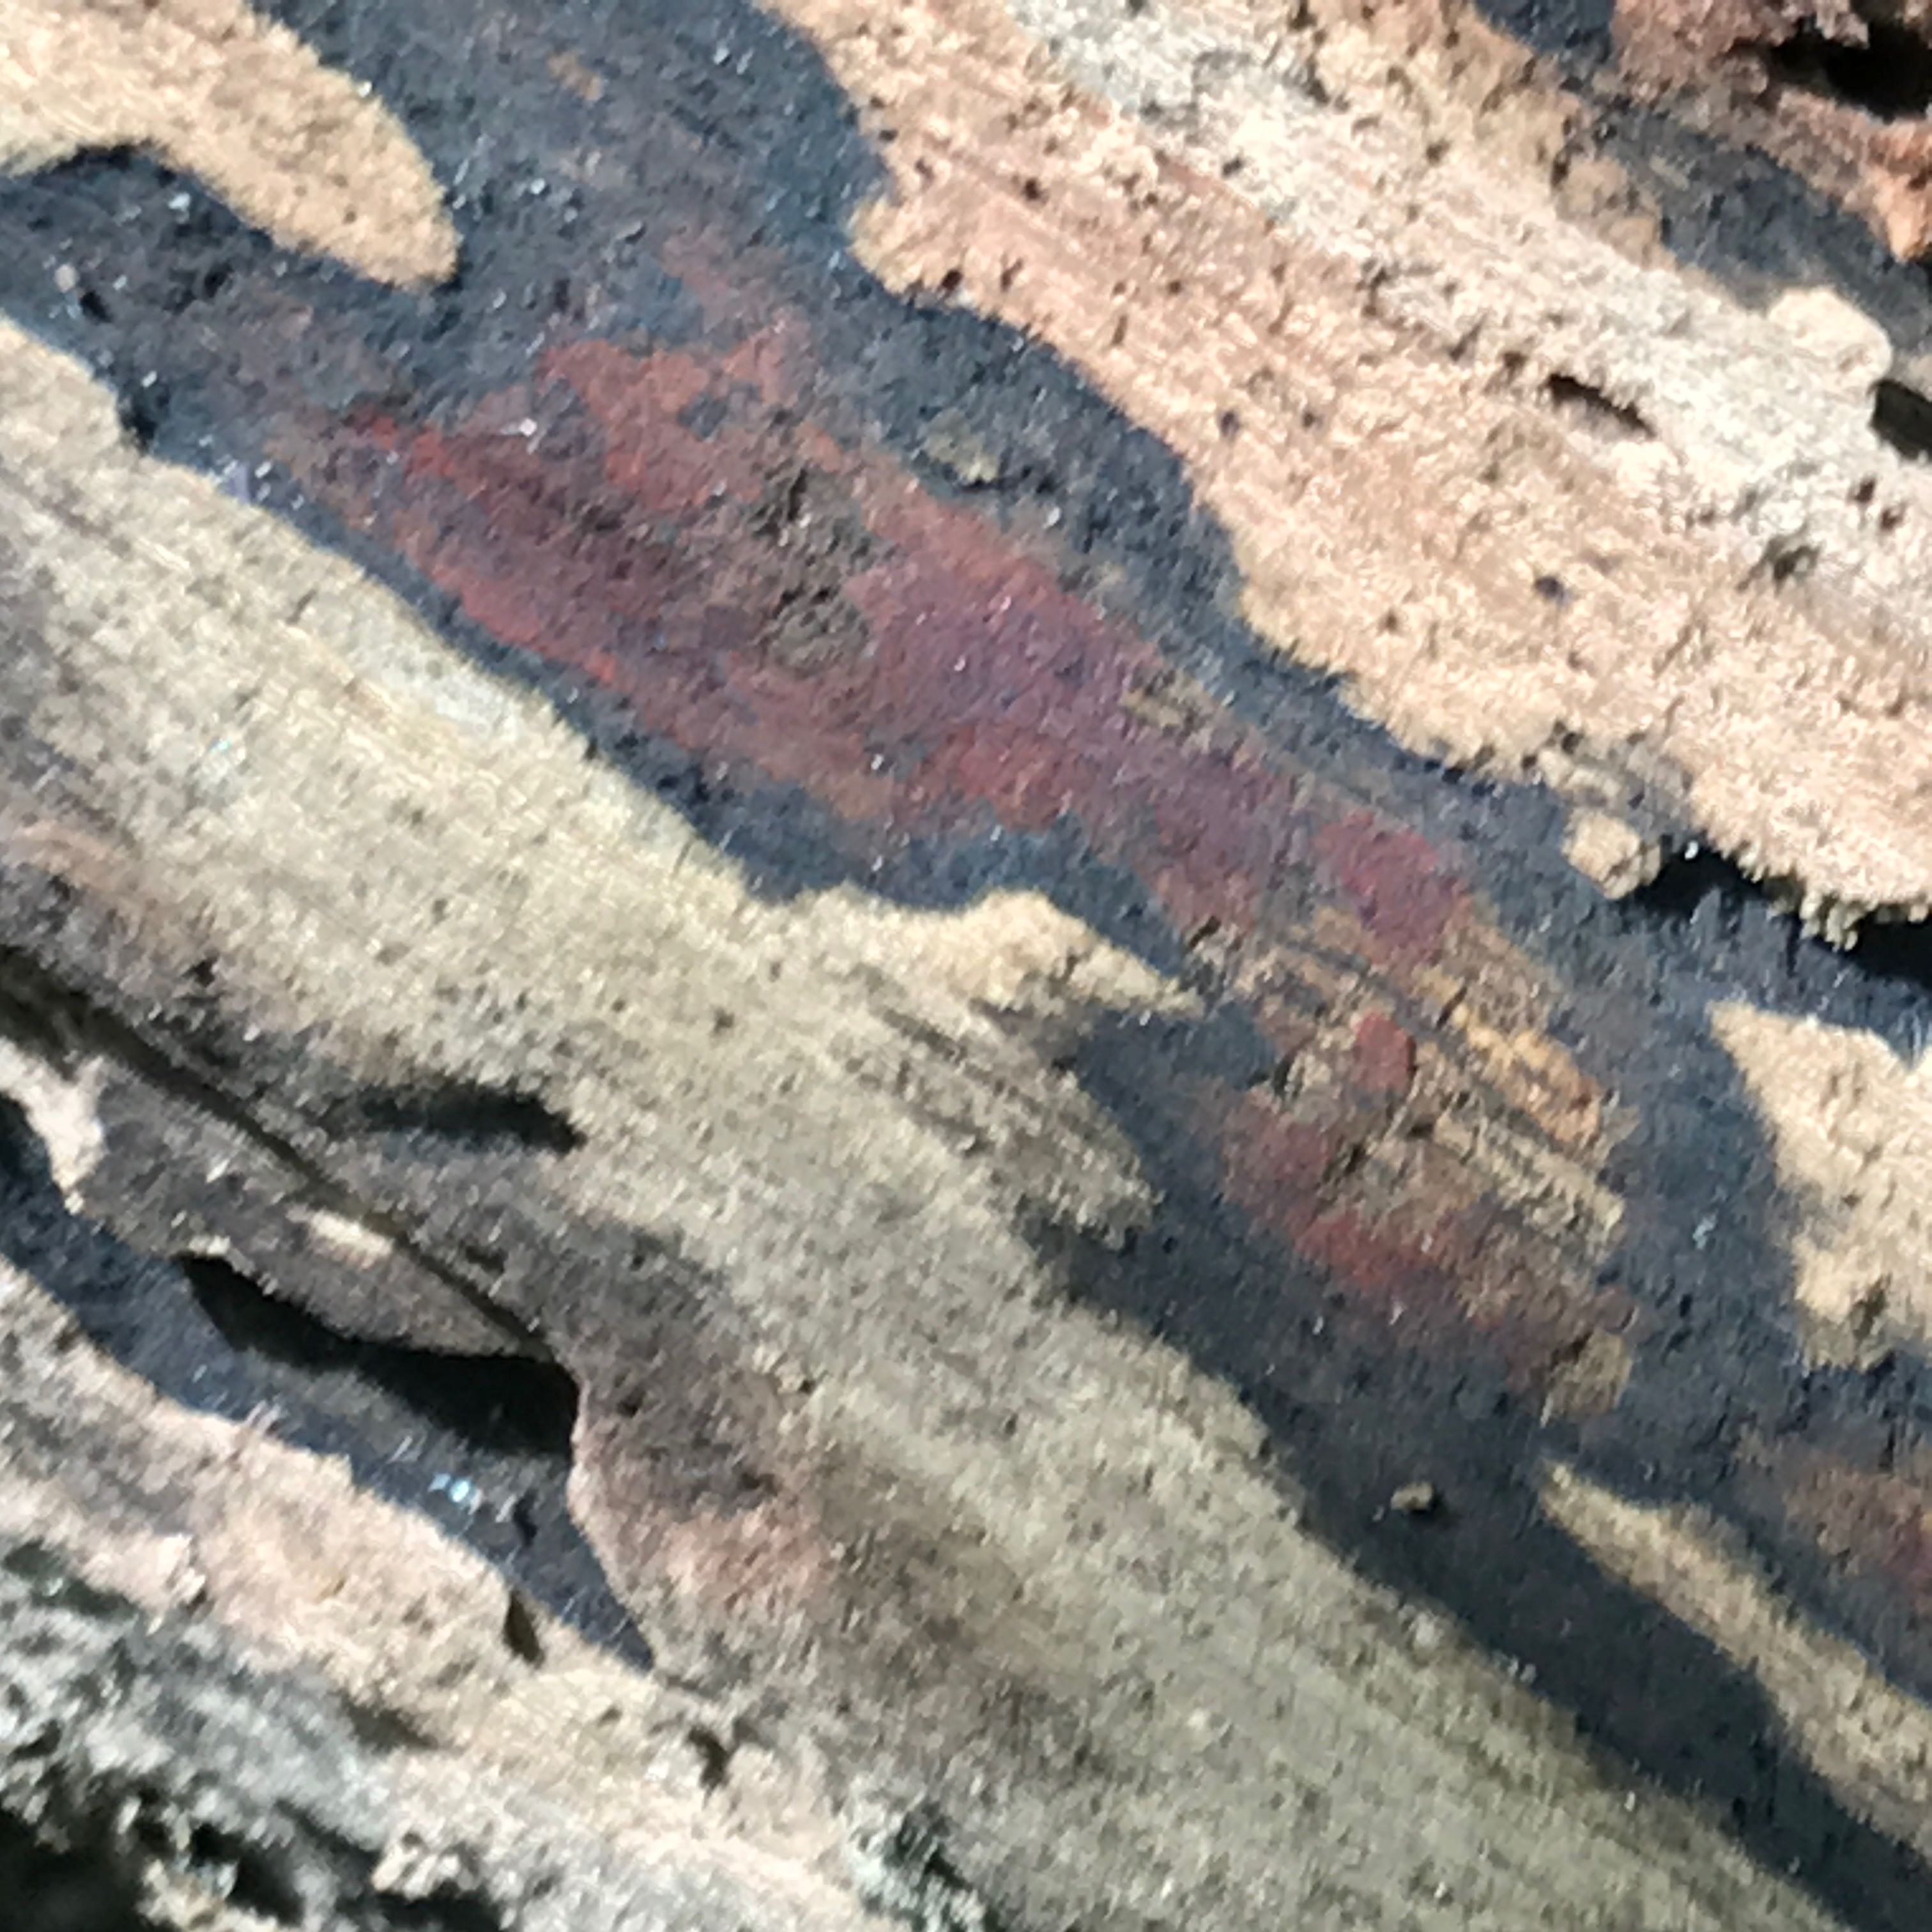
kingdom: Fungi
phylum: Ascomycota
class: Sordariomycetes
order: Xylariales
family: Hypoxylaceae
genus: Hypoxylon
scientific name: Hypoxylon petriniae
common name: nedsænket kulbær
